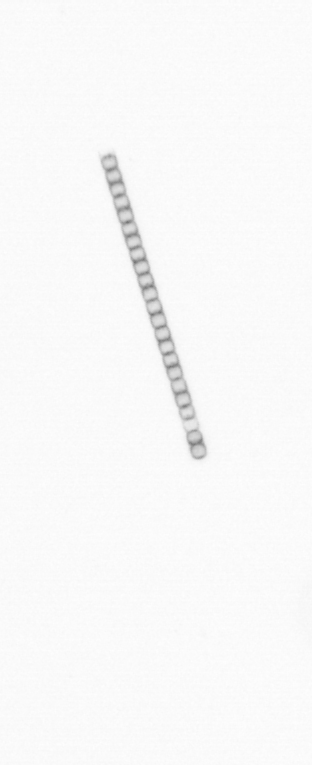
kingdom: Chromista
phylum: Ochrophyta
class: Bacillariophyceae
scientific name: Bacillariophyceae
